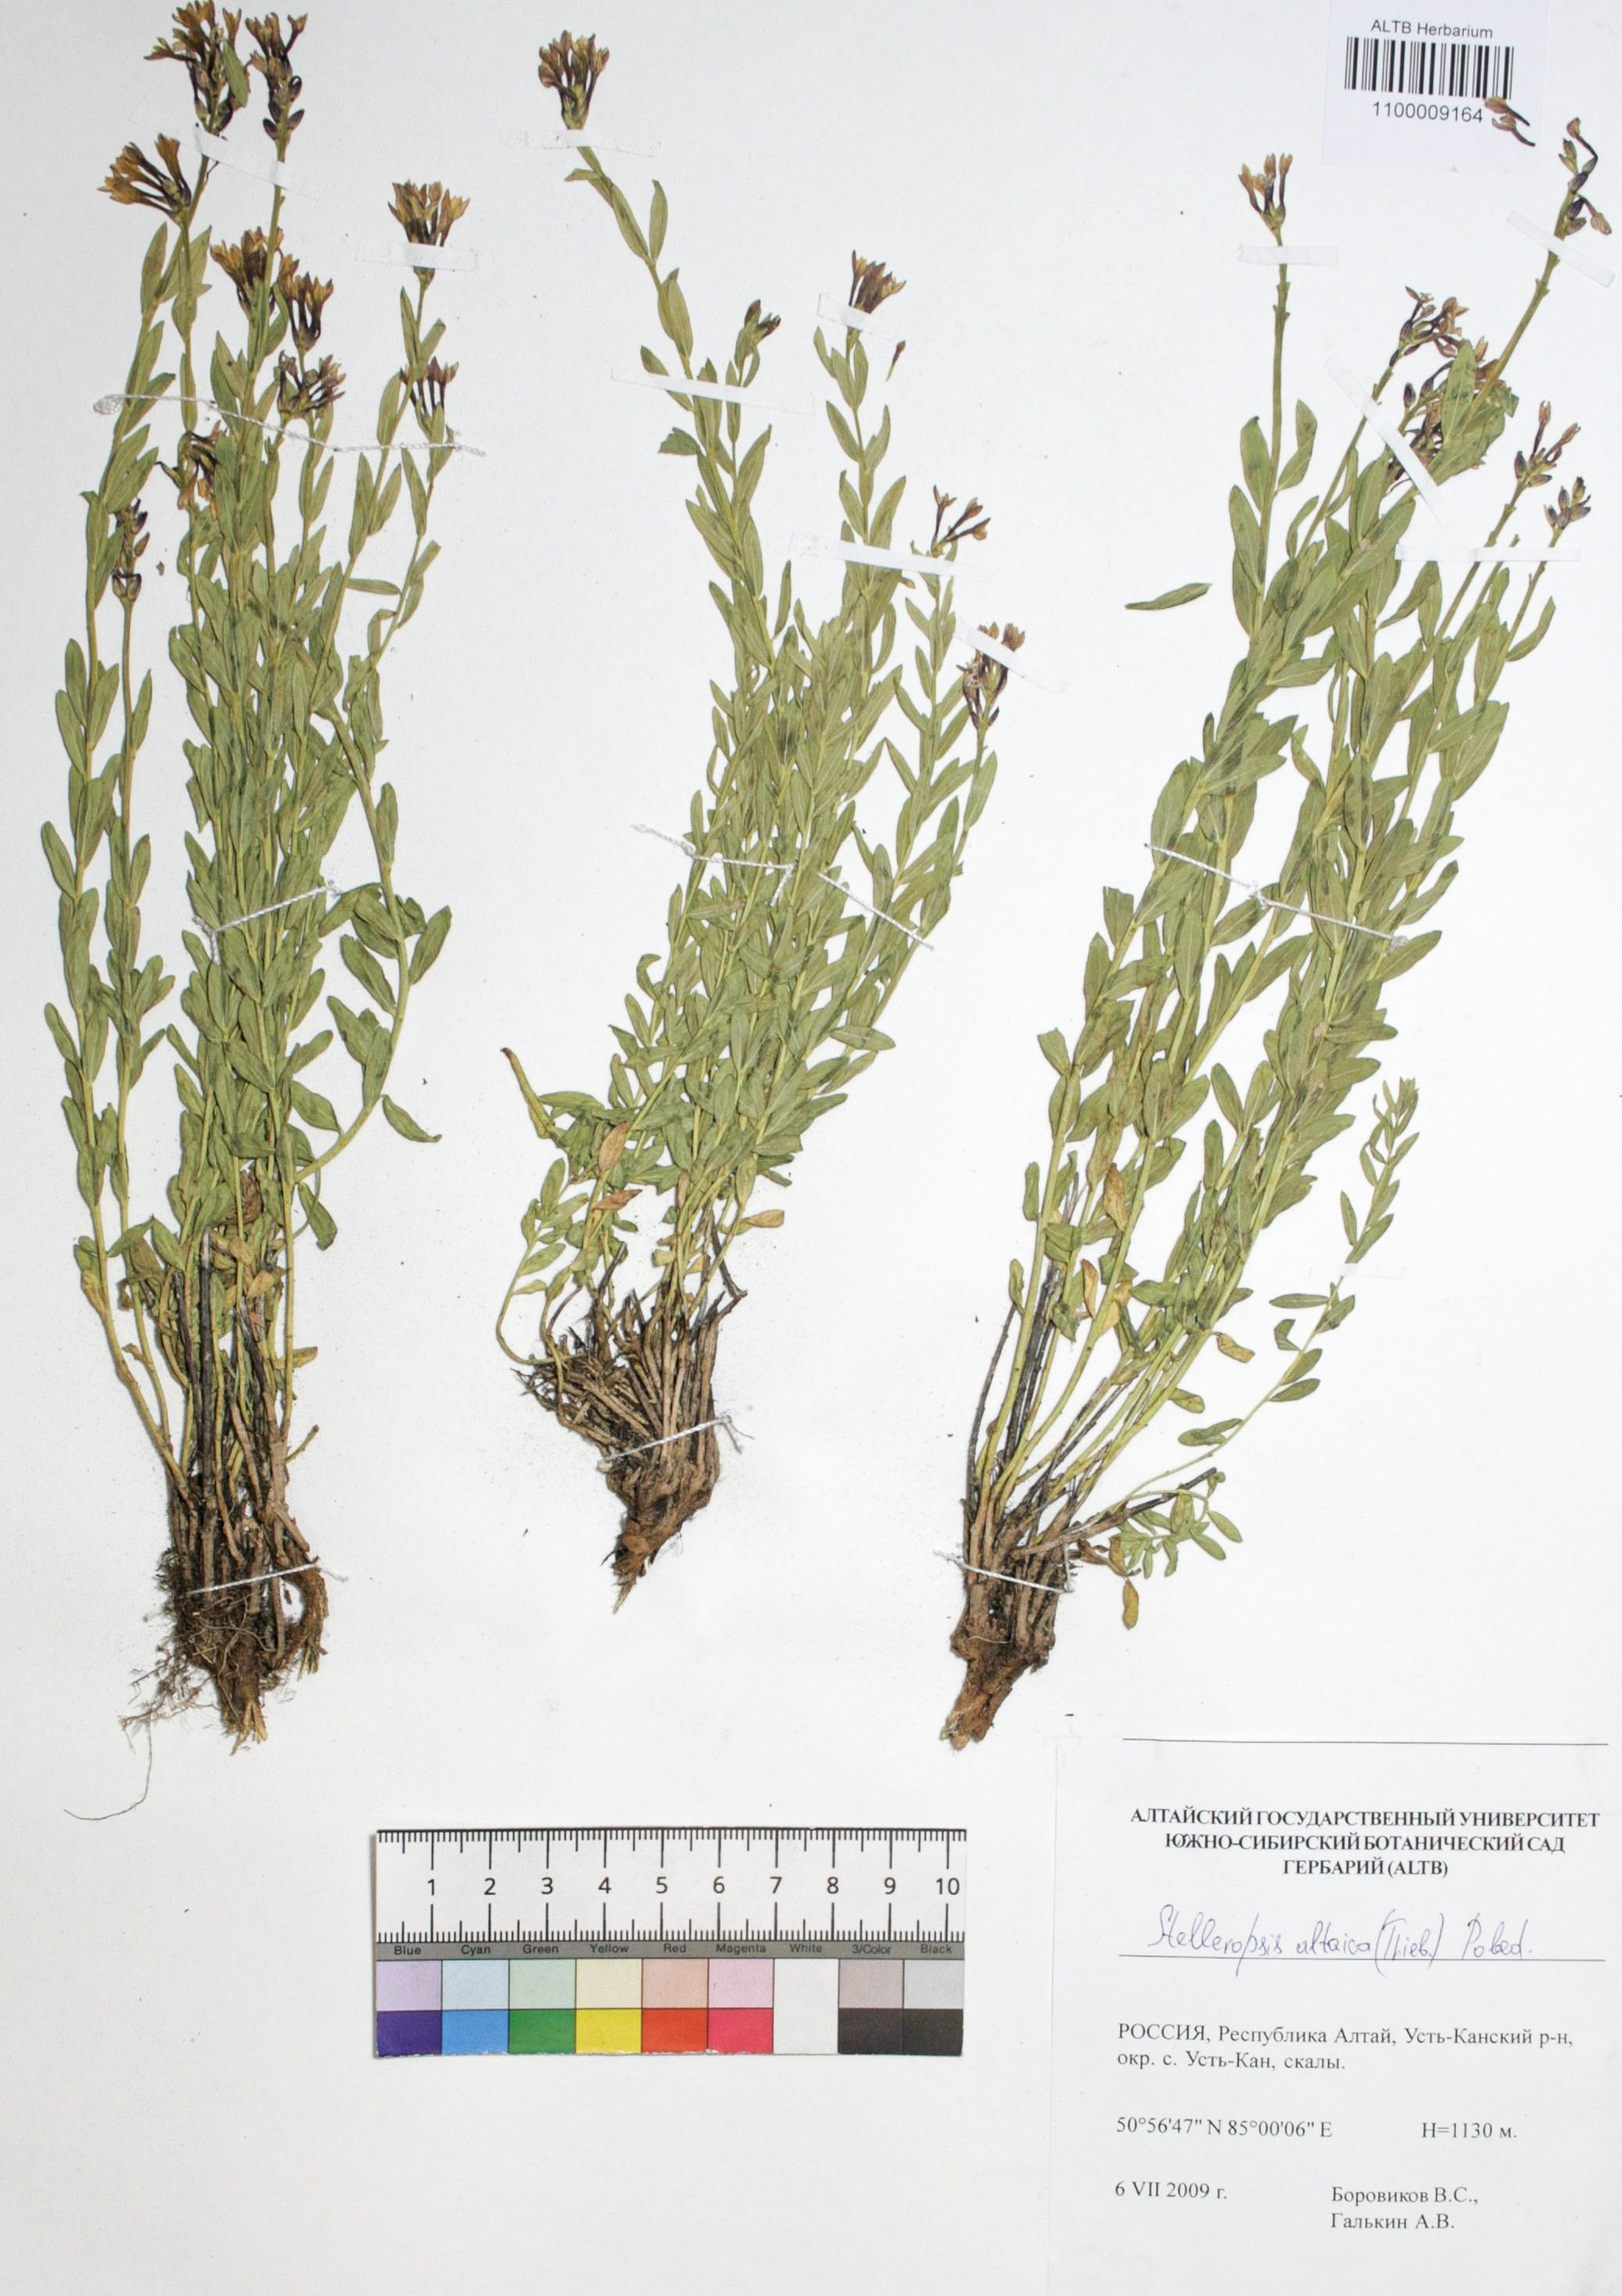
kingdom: Plantae
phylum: Tracheophyta
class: Magnoliopsida
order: Malvales
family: Thymelaeaceae
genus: Diarthron
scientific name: Diarthron altaicum
